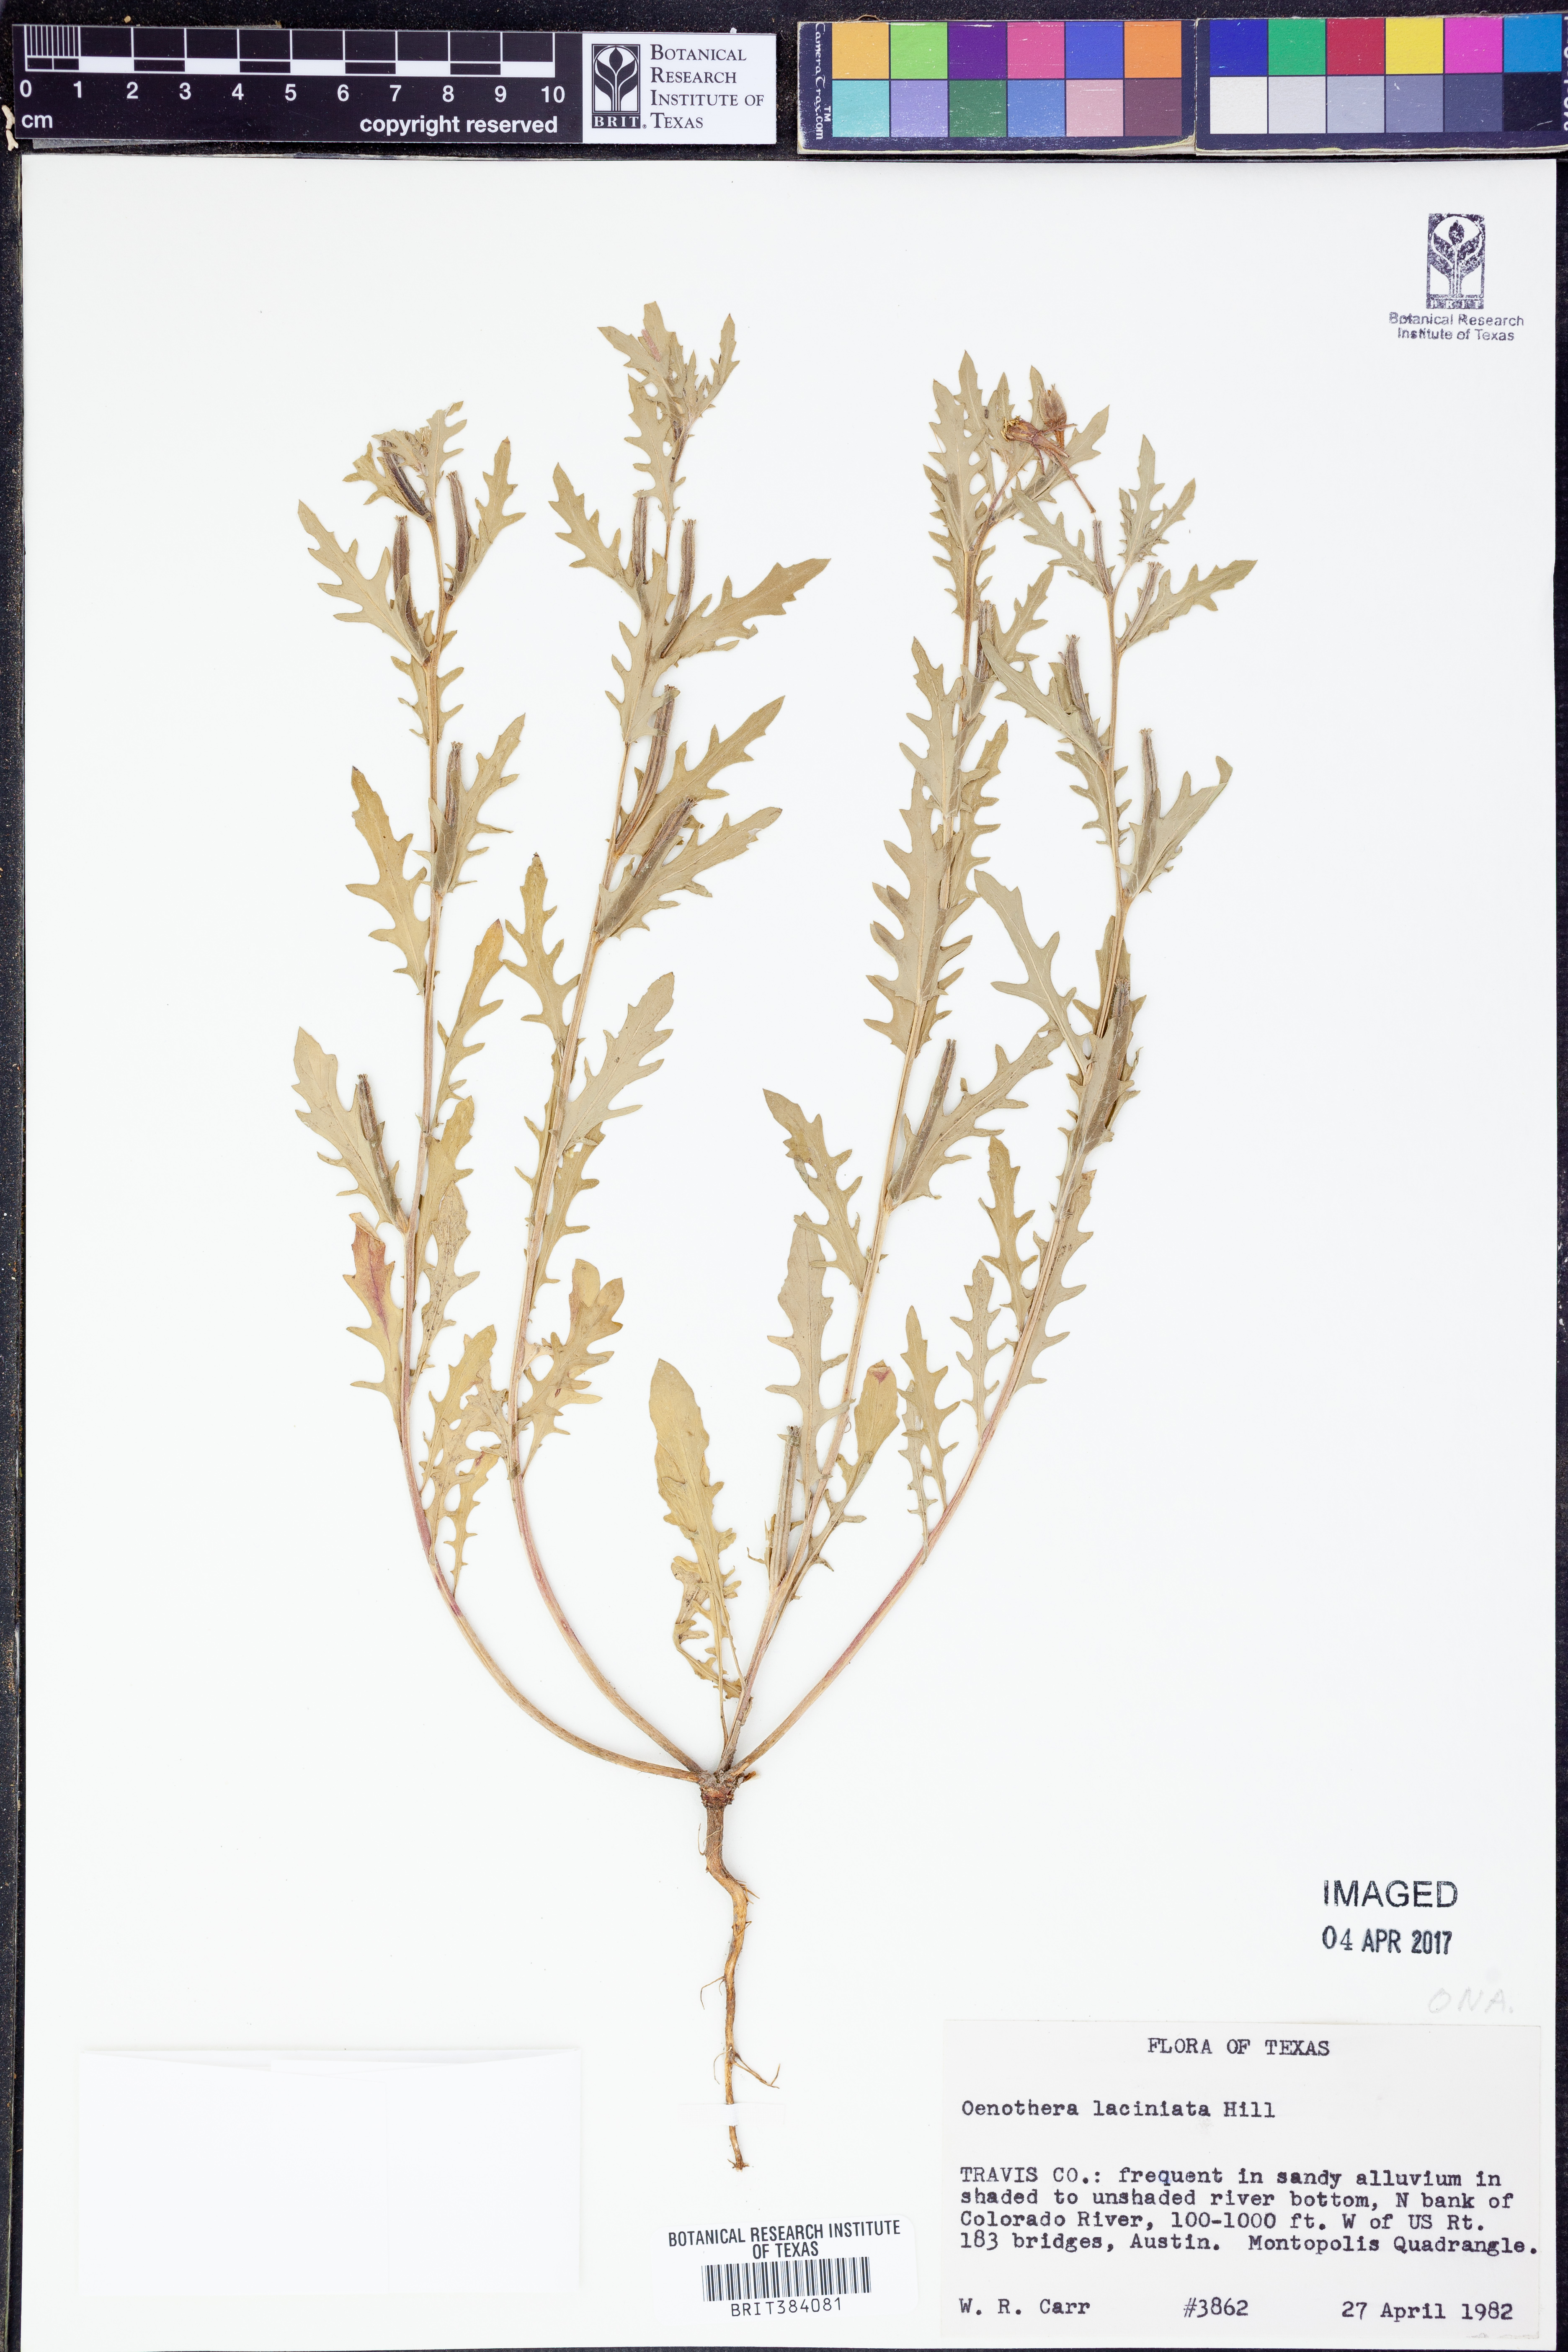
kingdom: Plantae
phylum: Tracheophyta
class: Magnoliopsida
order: Myrtales
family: Onagraceae
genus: Oenothera
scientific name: Oenothera laciniata
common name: Cut-leaved evening-primrose
